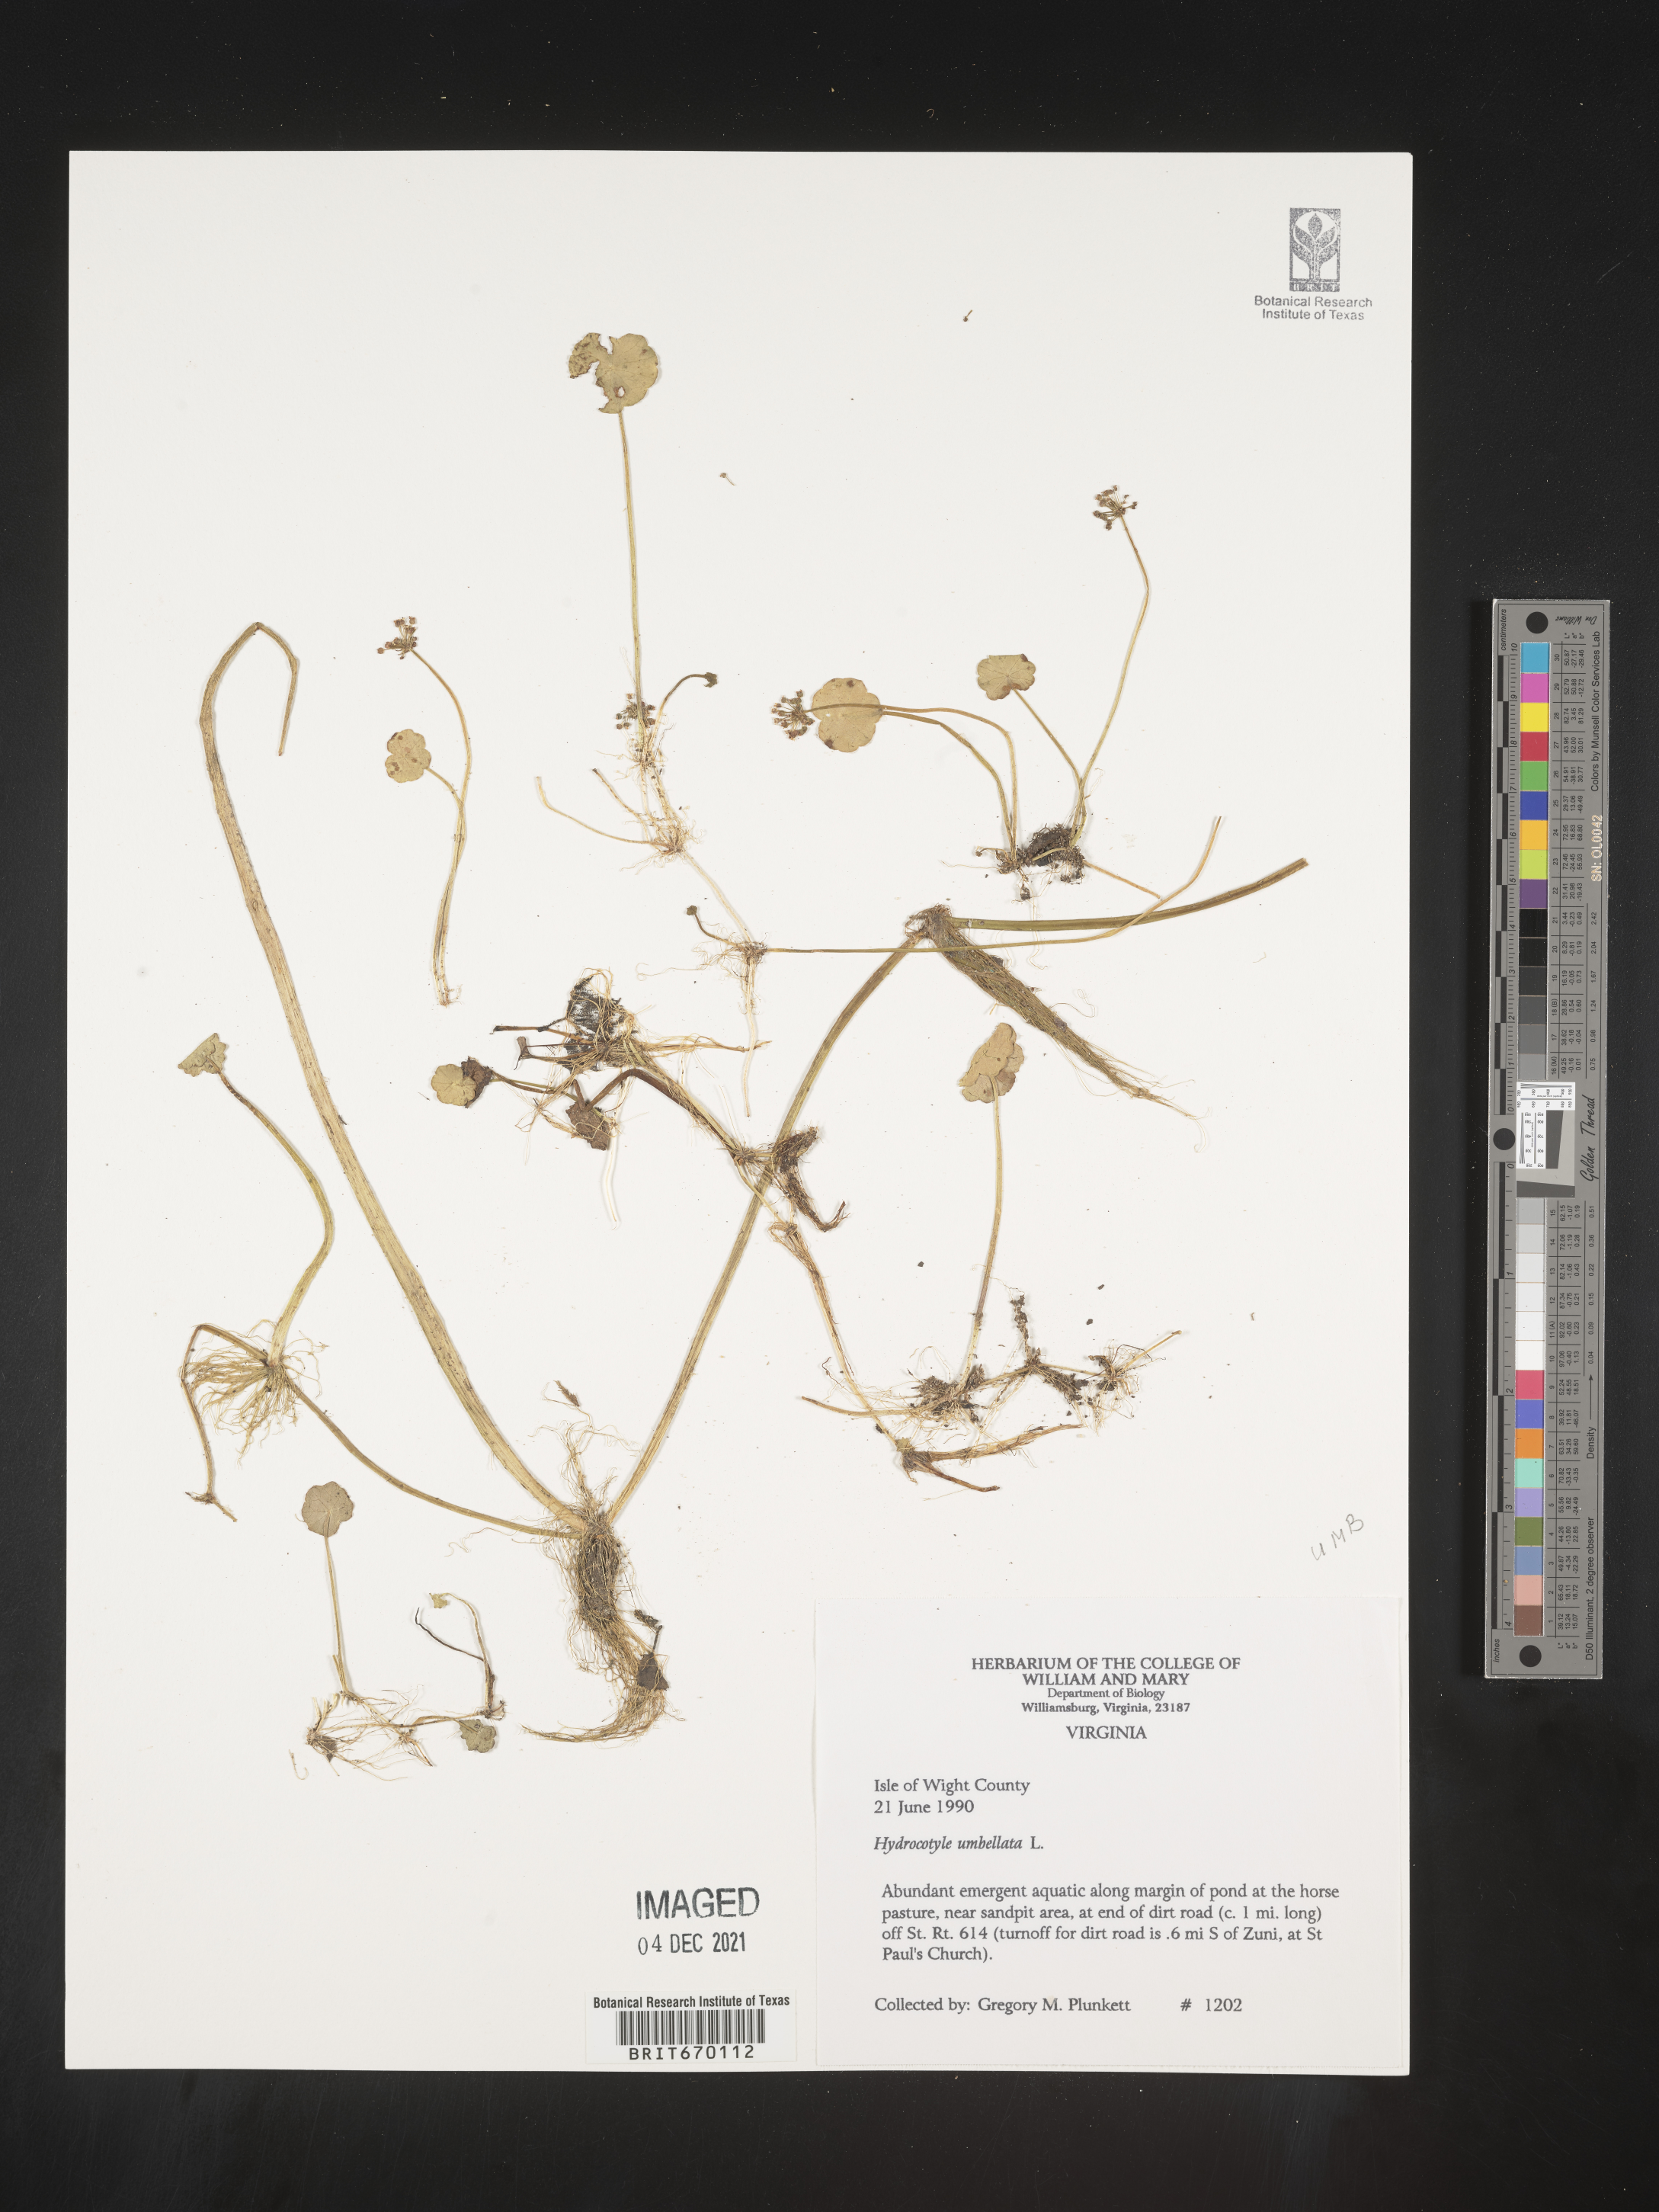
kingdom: Plantae
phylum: Tracheophyta
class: Magnoliopsida
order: Apiales
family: Araliaceae
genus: Hydrocotyle
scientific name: Hydrocotyle umbellata
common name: Water pennywort
